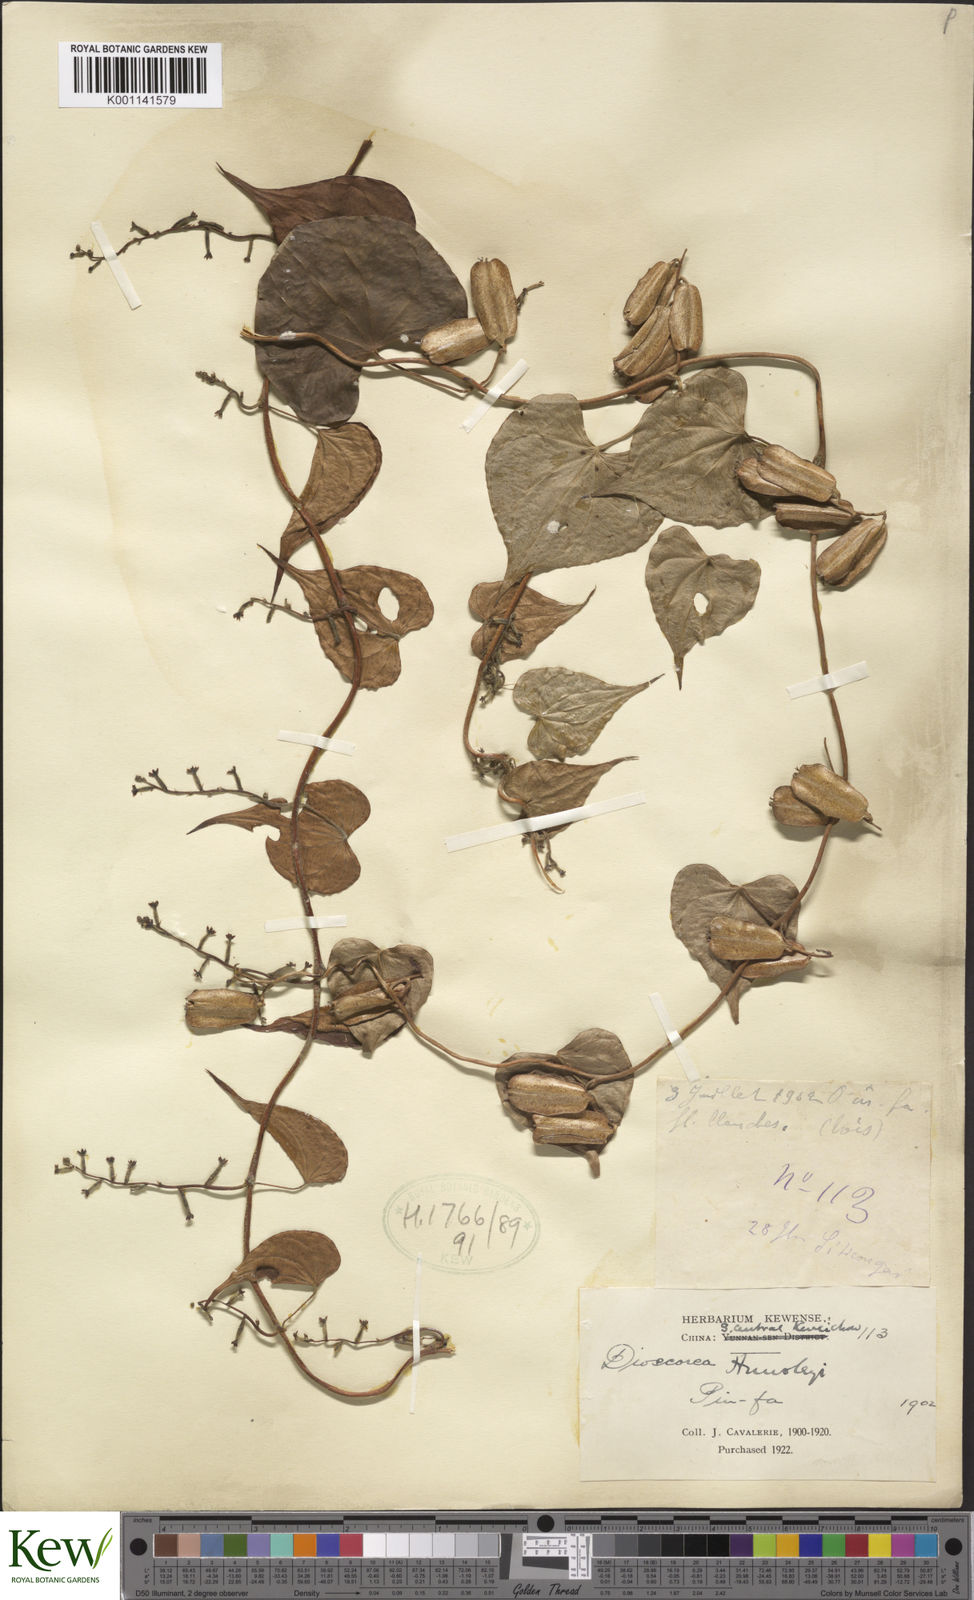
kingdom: Plantae
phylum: Tracheophyta
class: Liliopsida
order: Dioscoreales
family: Dioscoreaceae
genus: Dioscorea
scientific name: Dioscorea hemsleyi
